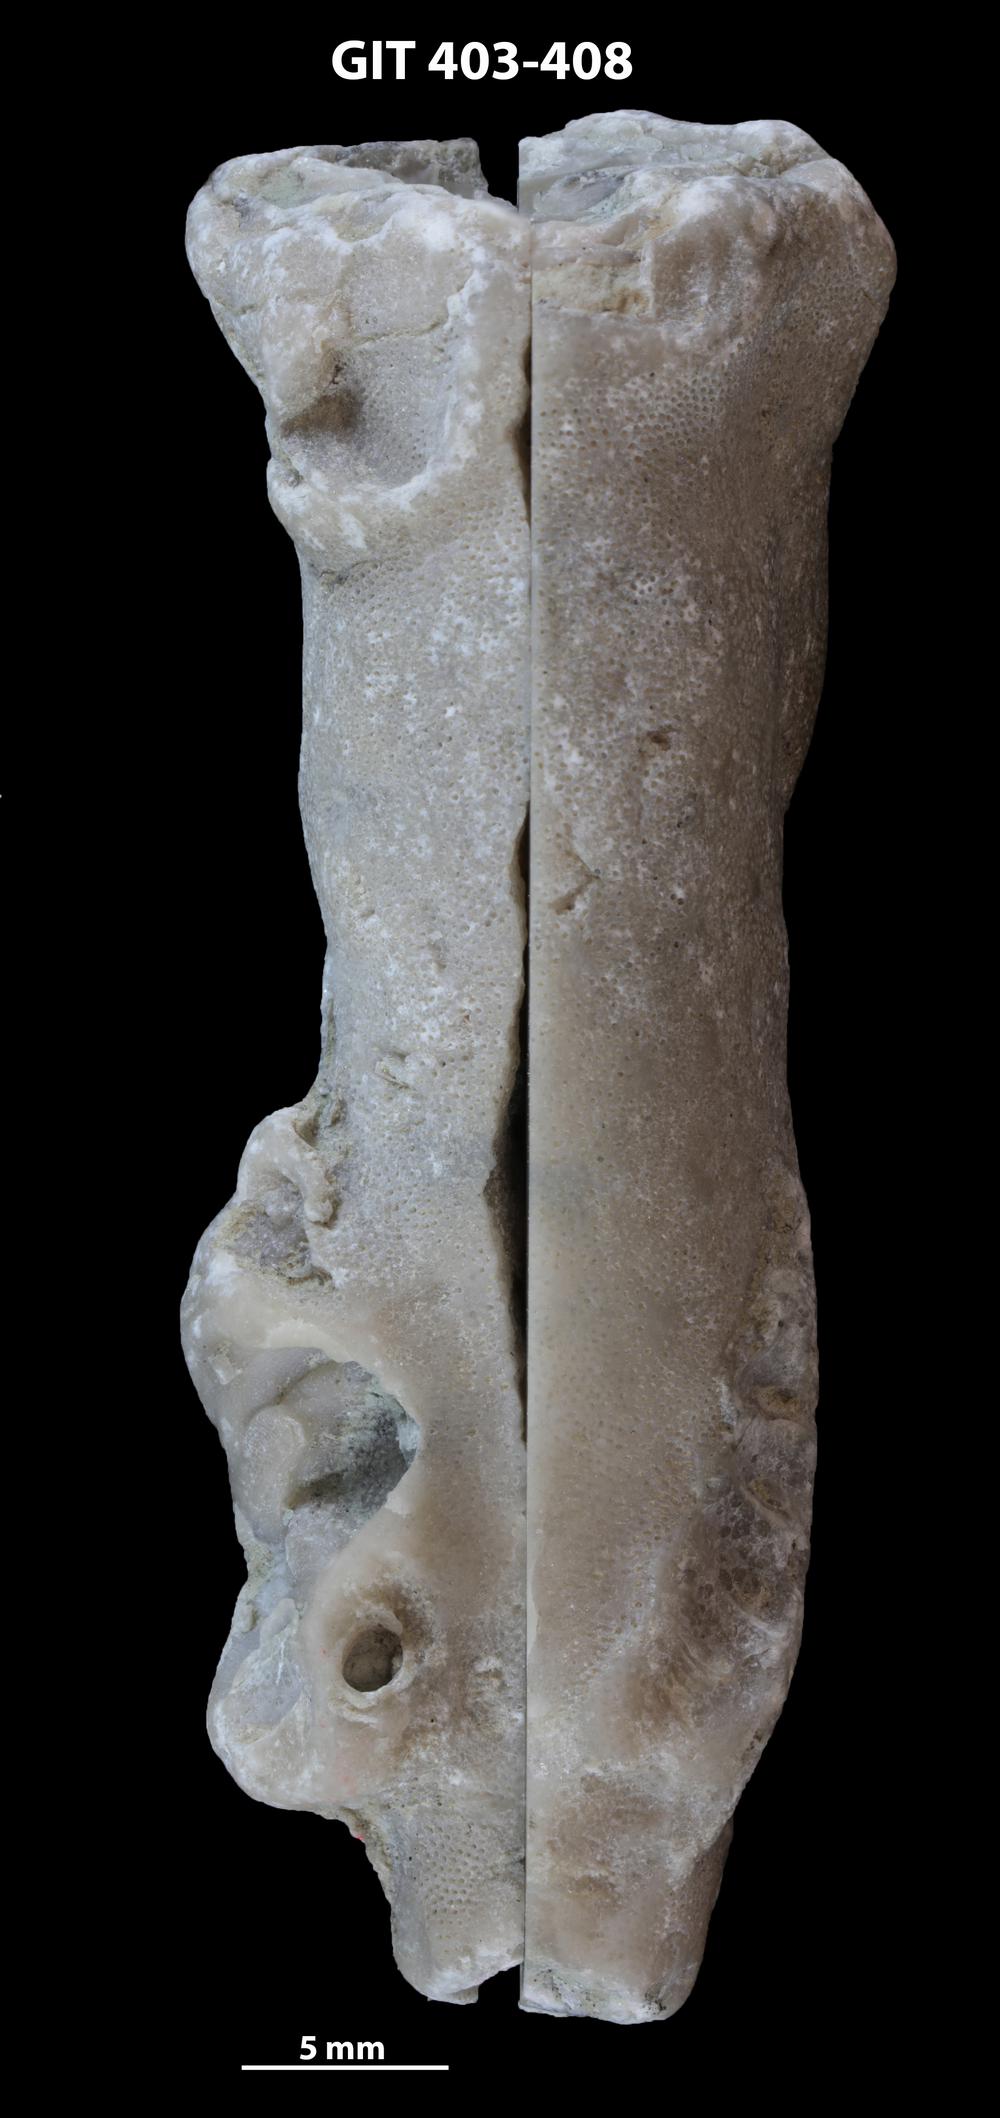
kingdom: Animalia
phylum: Bryozoa
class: Stenolaemata
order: Cystoporida
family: Fistuliporidae
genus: Fistulipora
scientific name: Fistulipora przhidolensis
